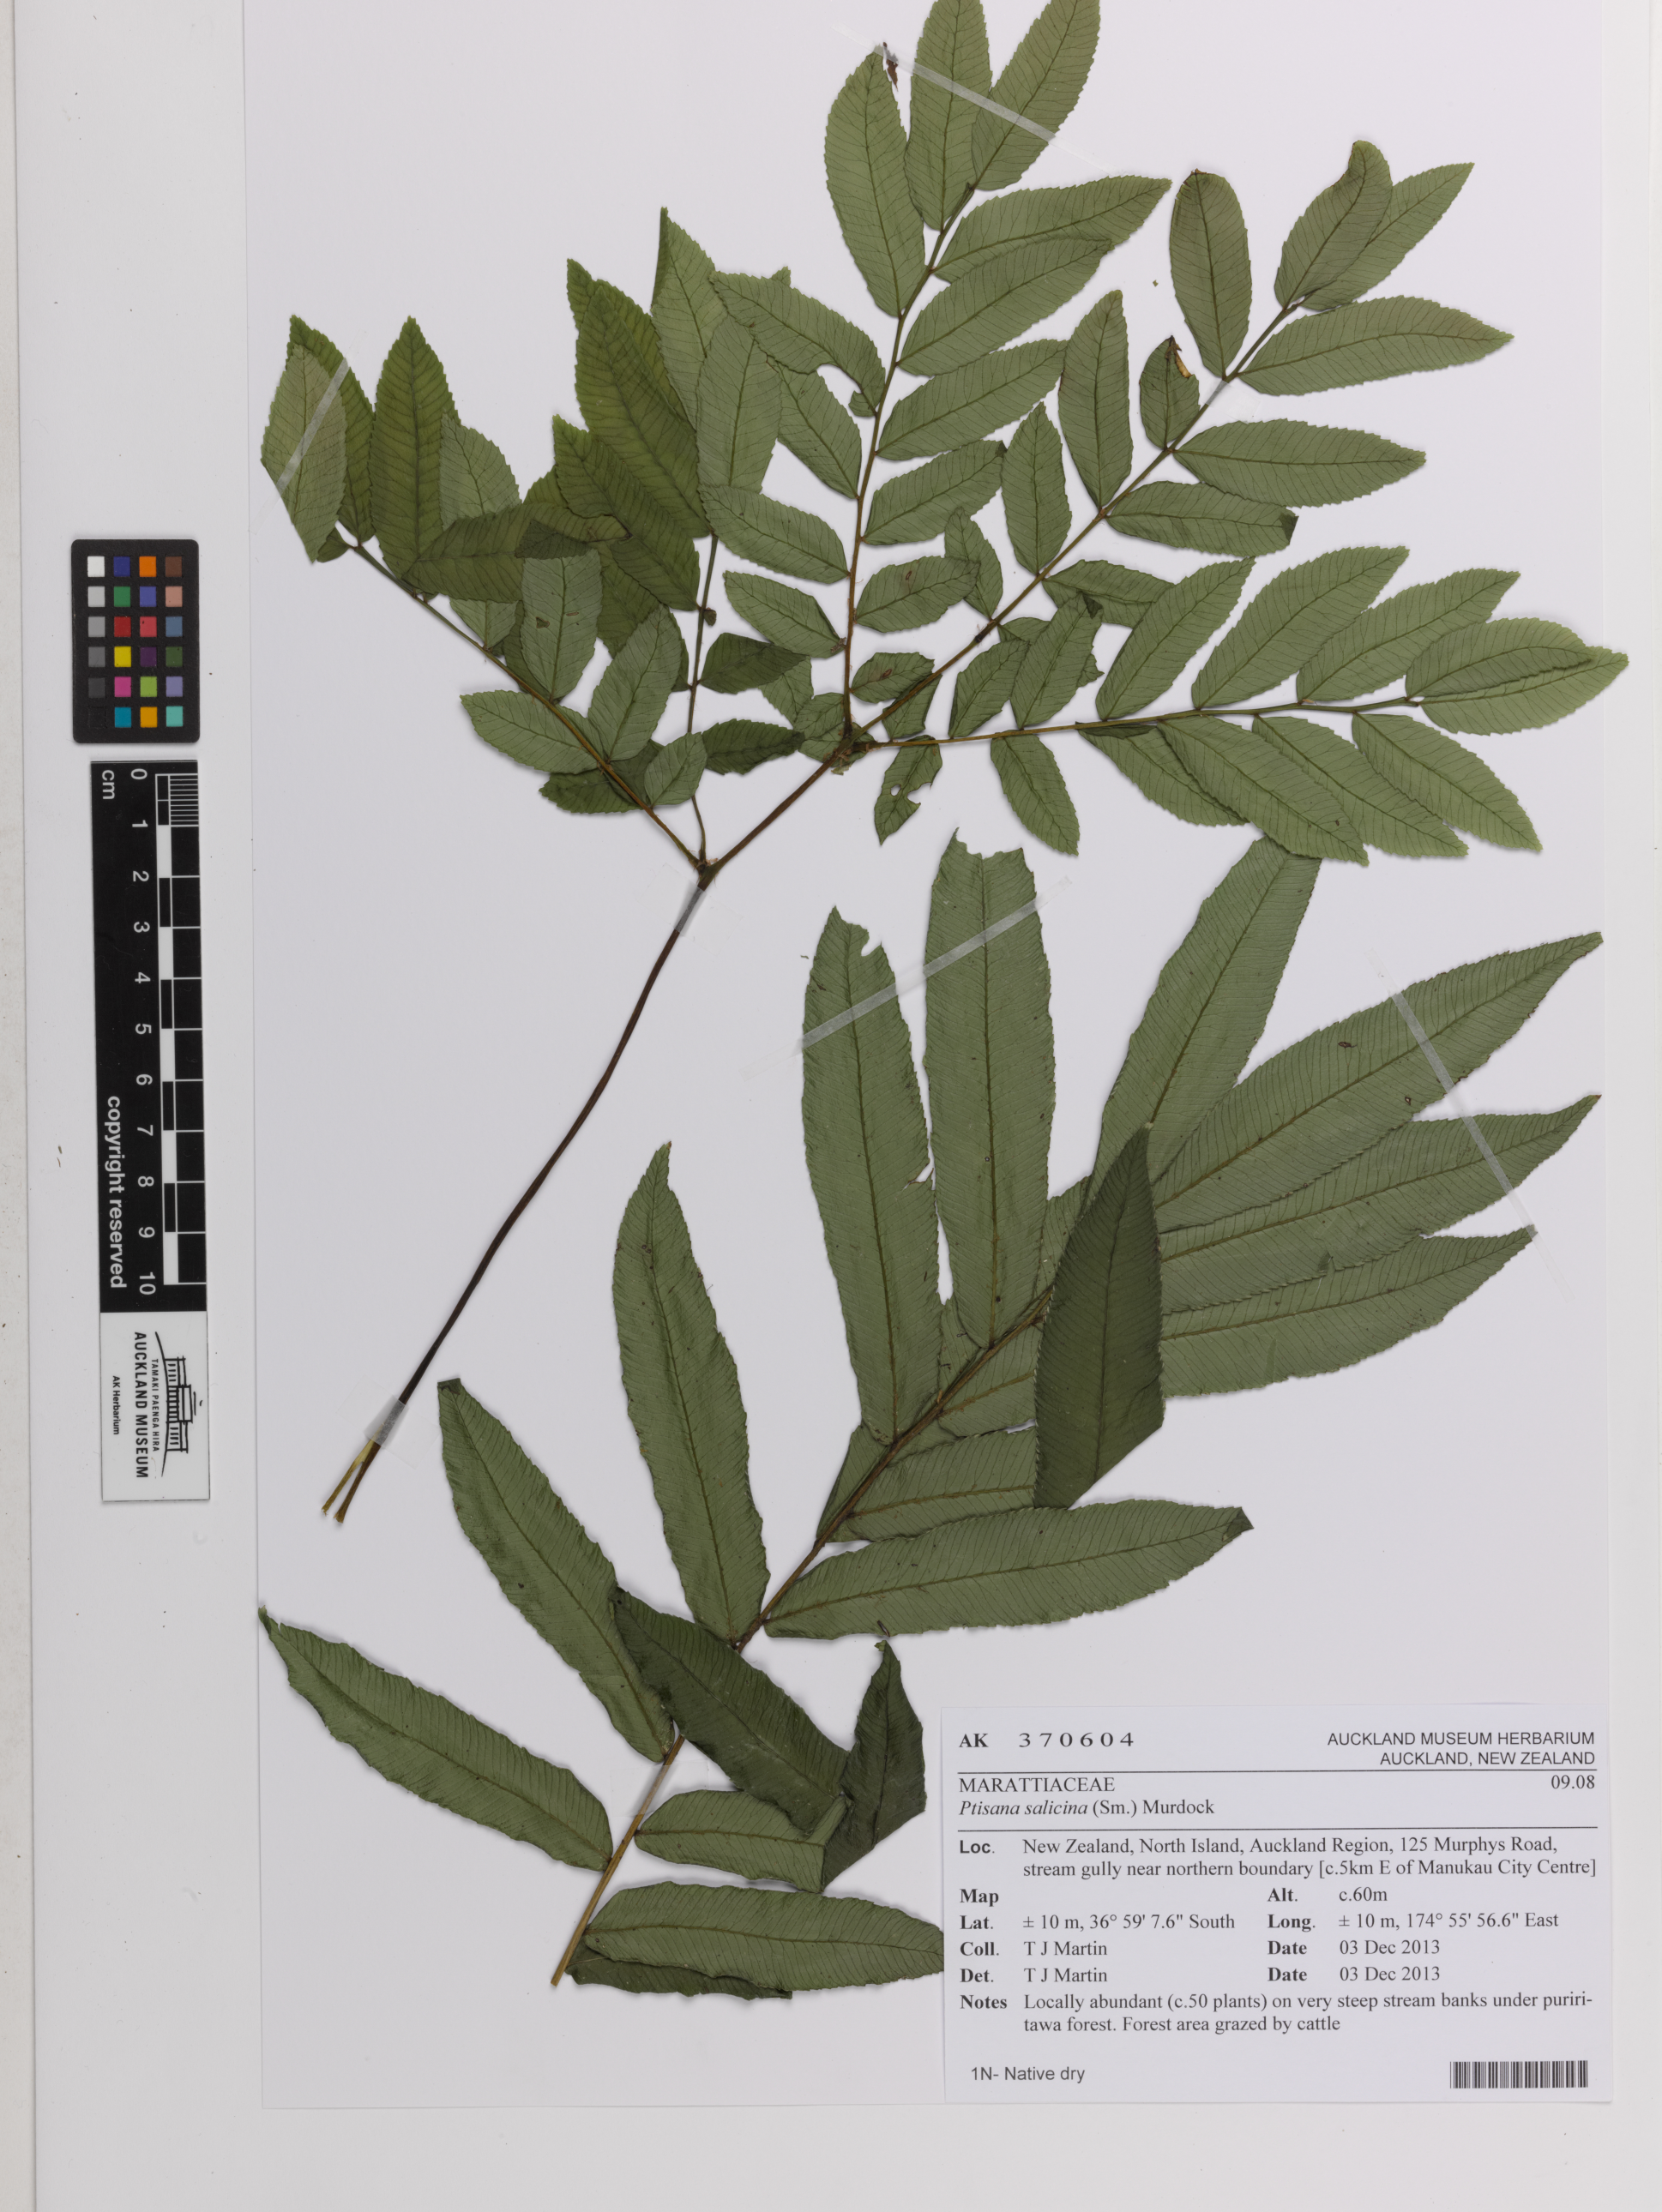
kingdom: Plantae
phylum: Tracheophyta
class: Polypodiopsida
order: Marattiales
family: Marattiaceae
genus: Ptisana
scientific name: Ptisana salicina
